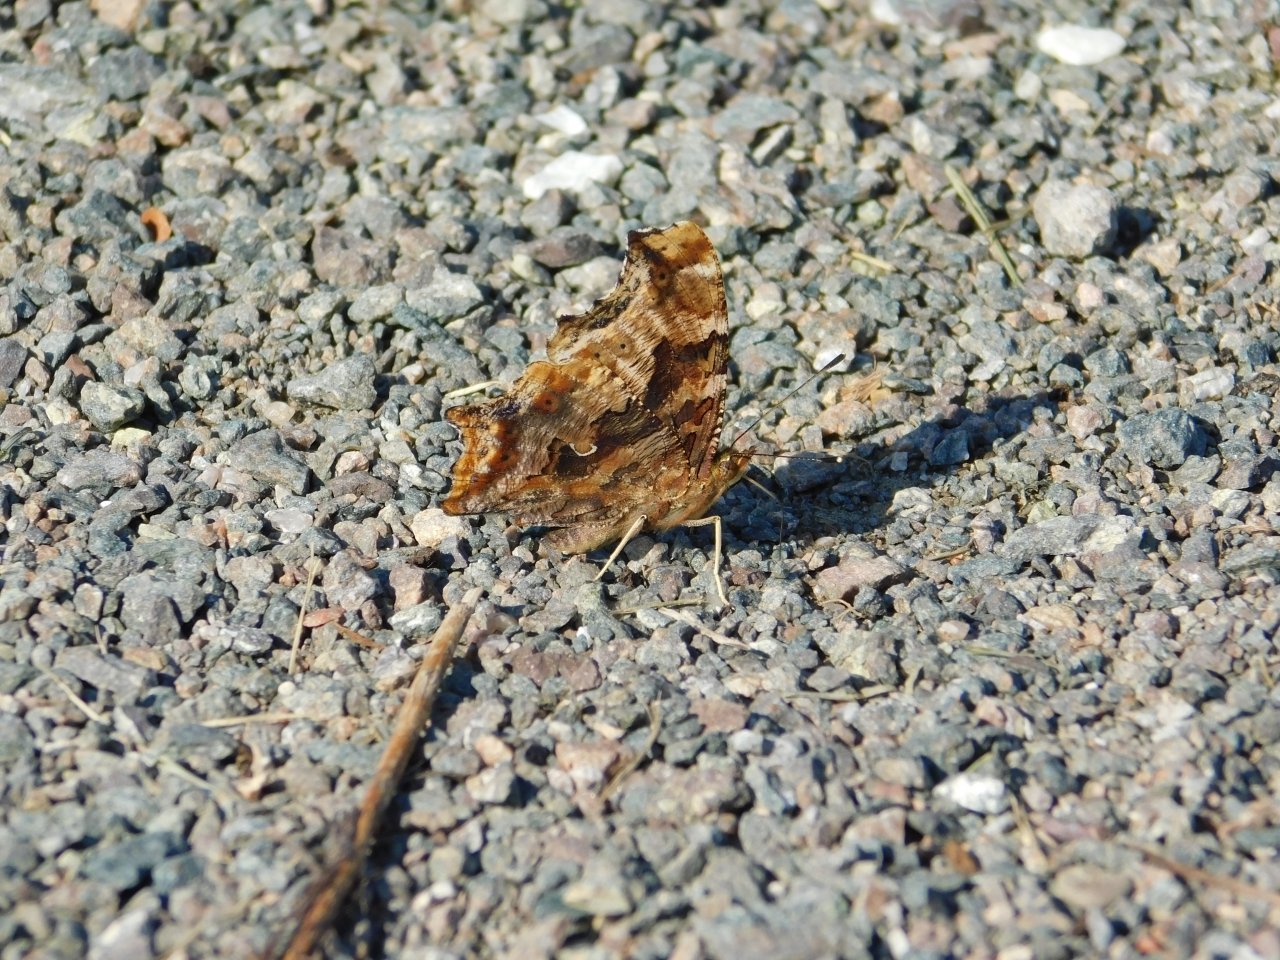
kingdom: Animalia
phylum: Arthropoda
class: Insecta
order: Lepidoptera
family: Nymphalidae
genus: Polygonia
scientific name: Polygonia comma
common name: Eastern Comma
